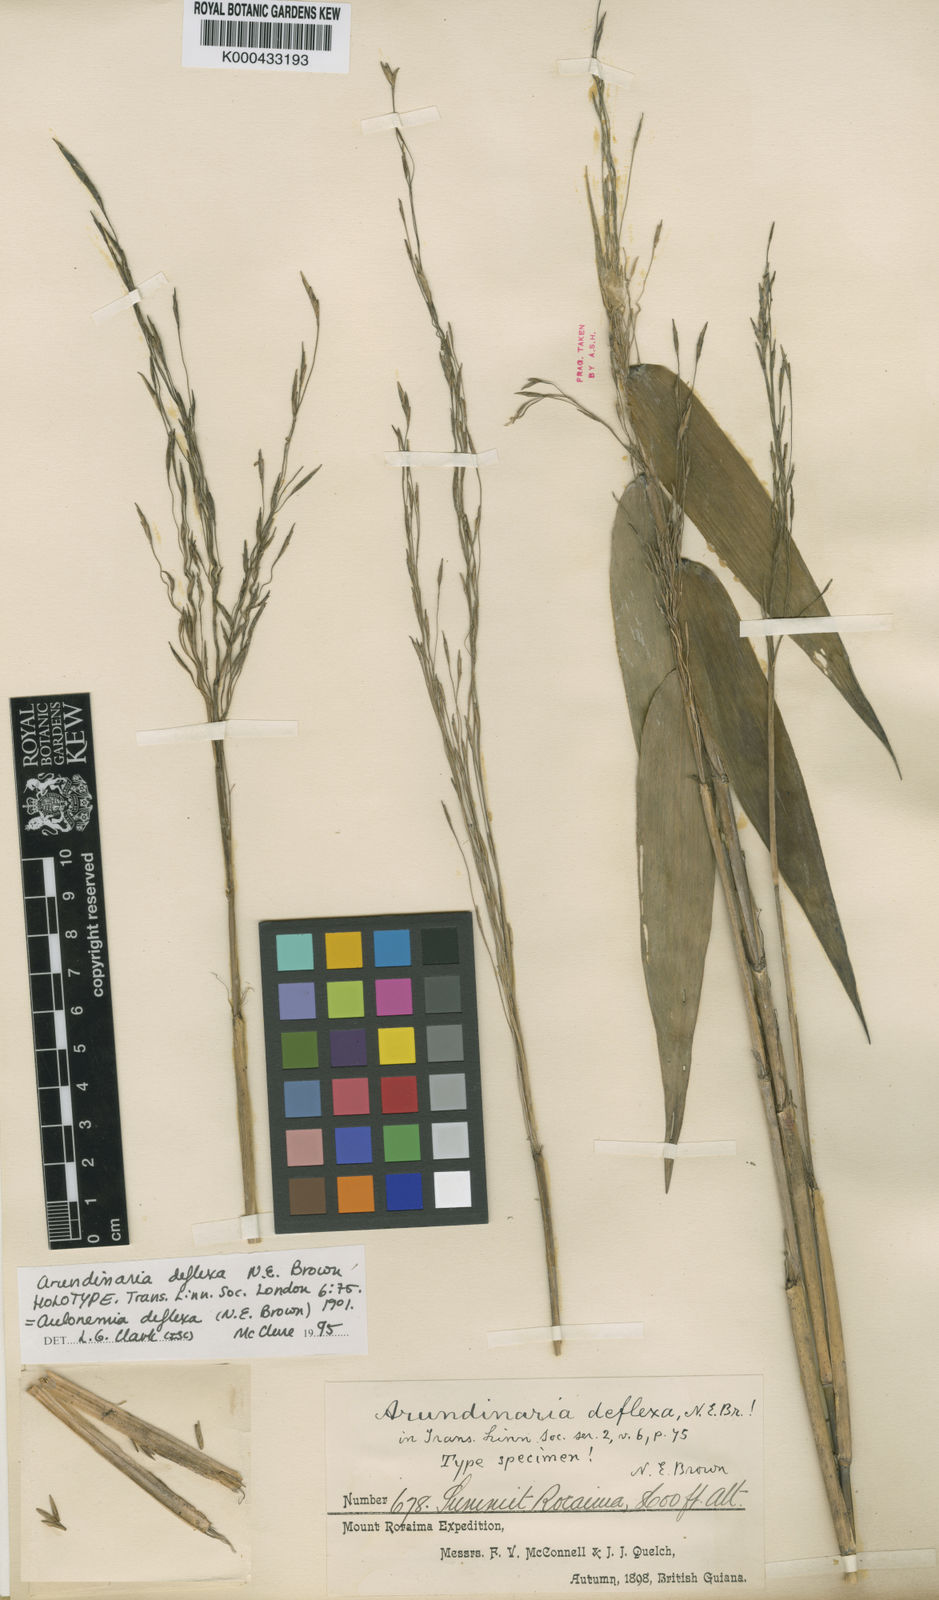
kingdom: Plantae
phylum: Tracheophyta
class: Liliopsida
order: Poales
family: Poaceae
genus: Aulonemia
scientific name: Aulonemia deflexa
